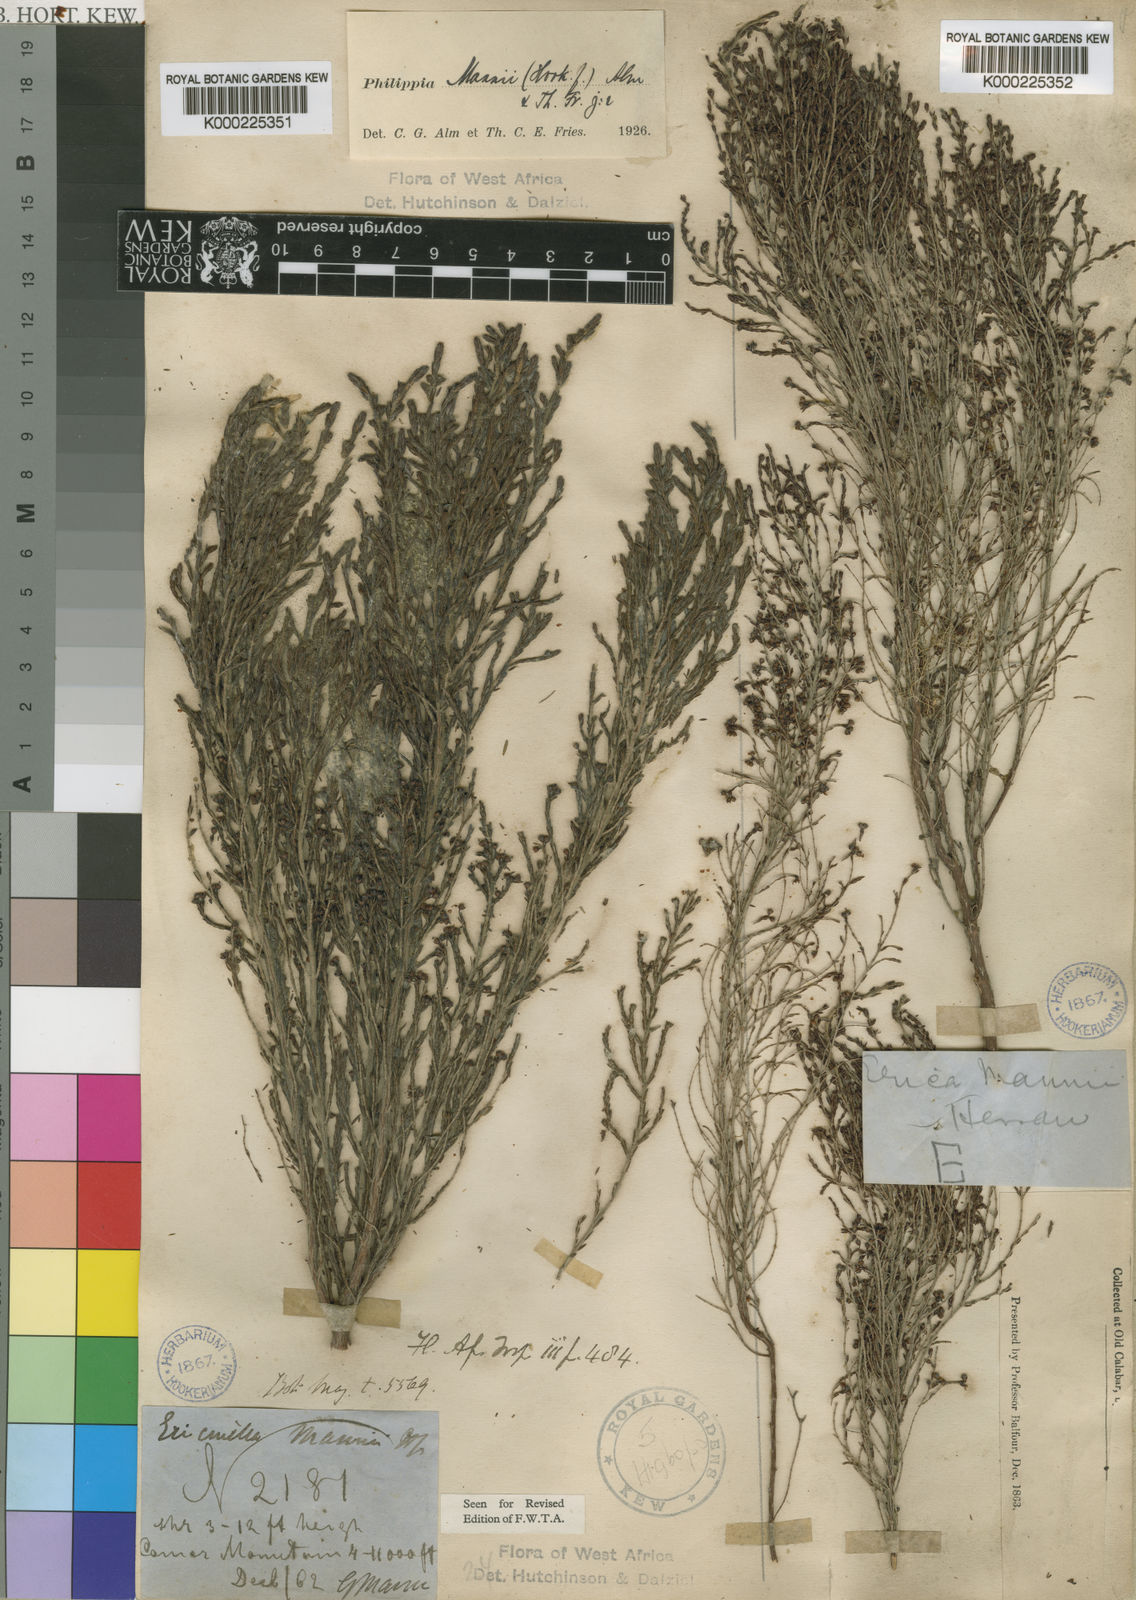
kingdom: Plantae
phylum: Tracheophyta
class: Magnoliopsida
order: Ericales
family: Ericaceae
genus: Erica
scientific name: Erica mannii
